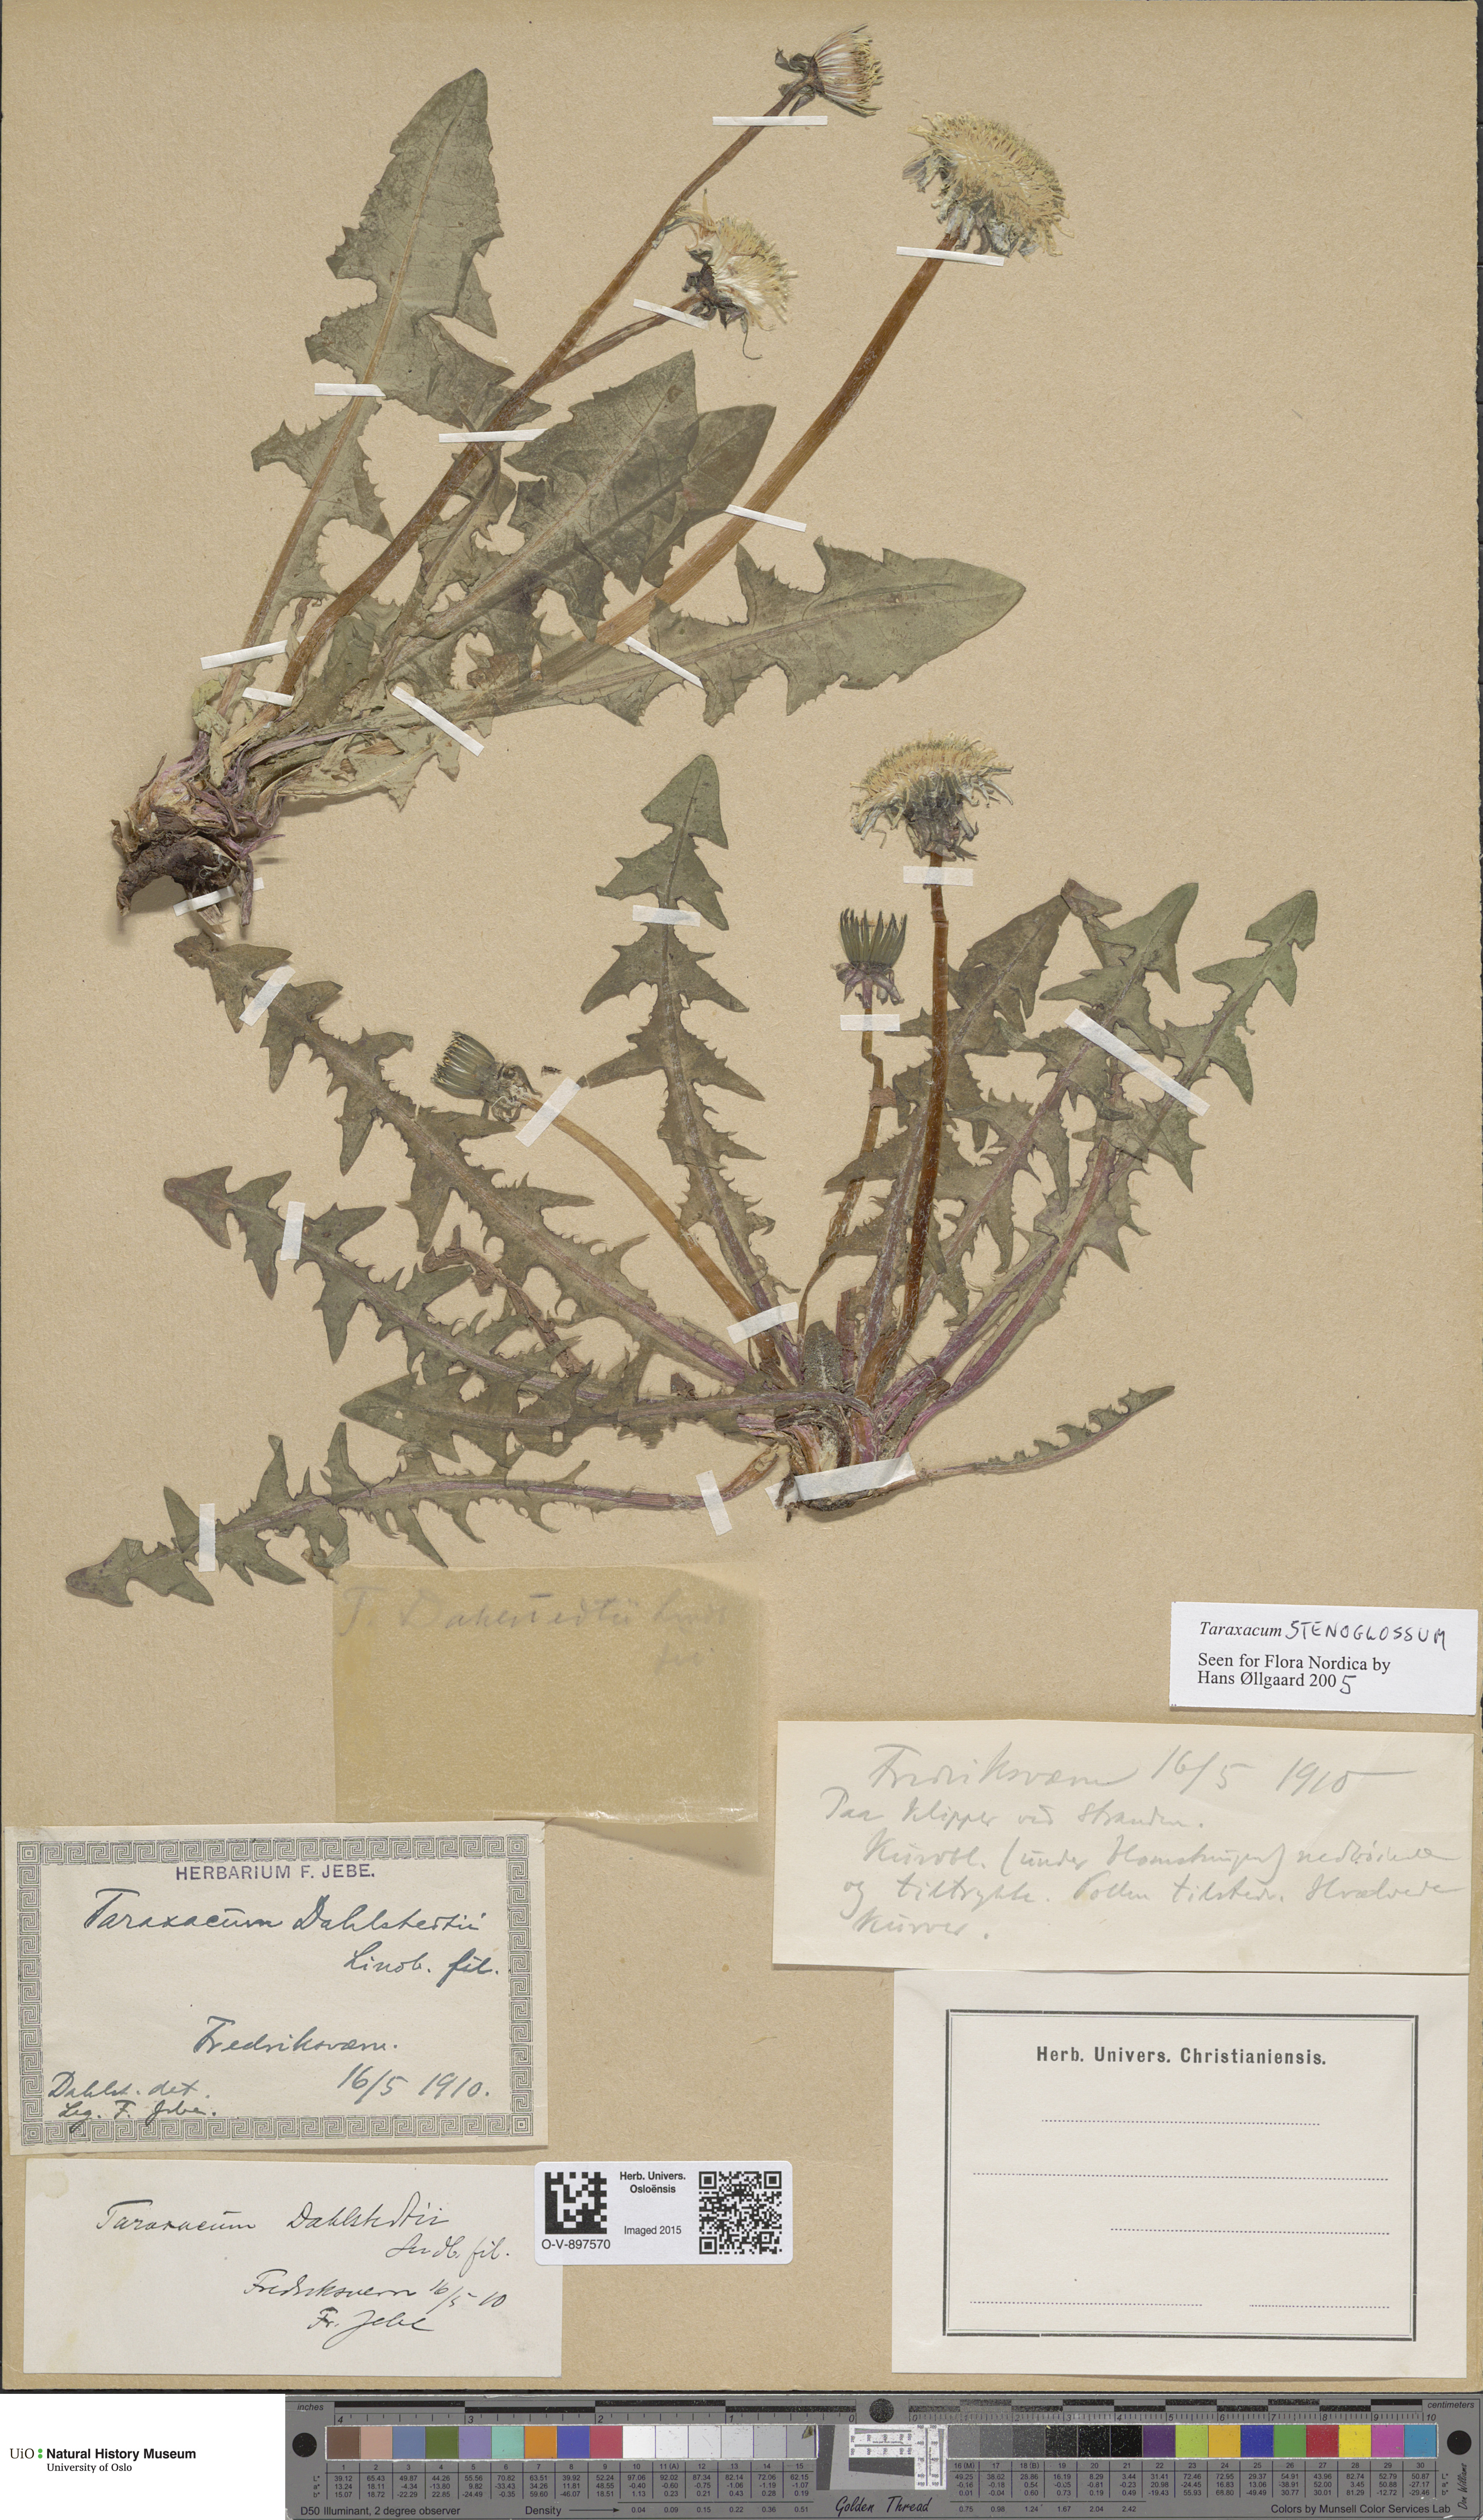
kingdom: Plantae
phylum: Tracheophyta
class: Magnoliopsida
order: Asterales
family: Asteraceae
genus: Taraxacum
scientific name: Taraxacum stenoglossum
